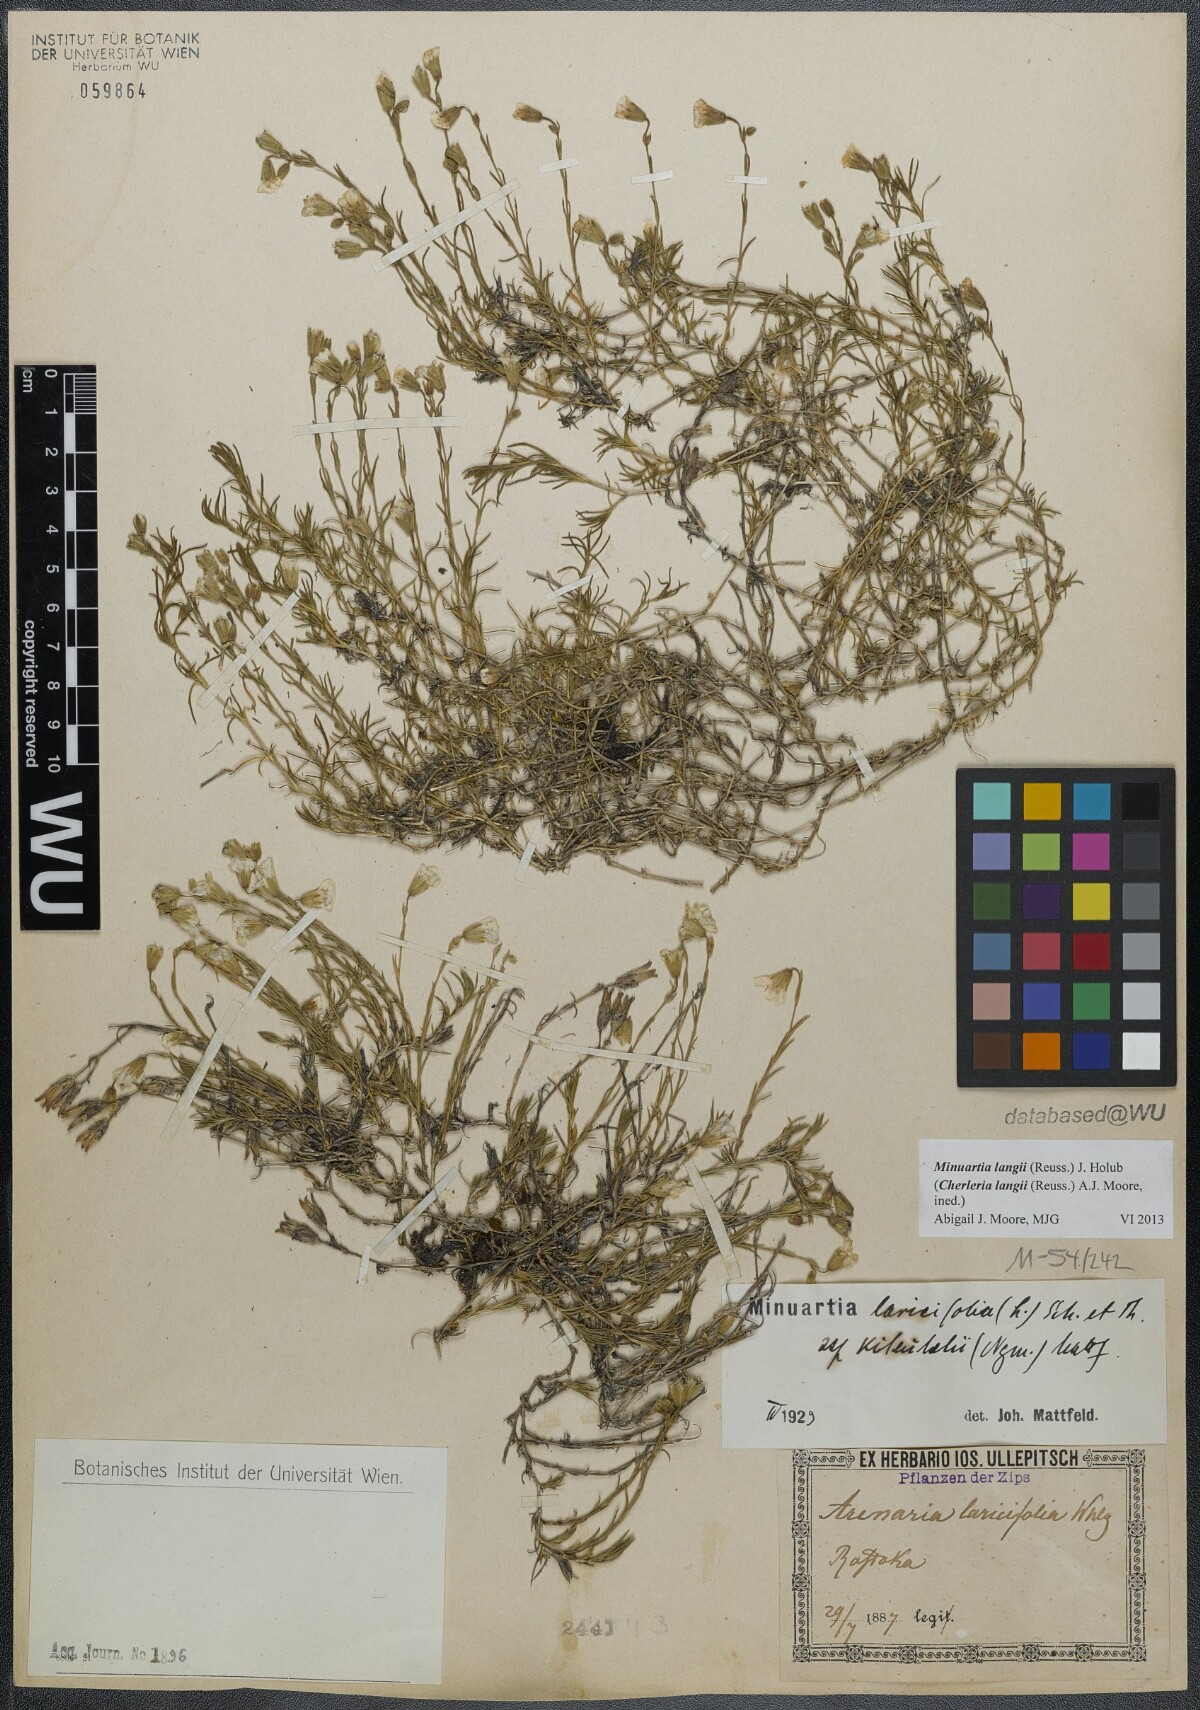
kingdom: Plantae
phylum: Tracheophyta
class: Magnoliopsida
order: Caryophyllales
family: Caryophyllaceae
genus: Cherleria
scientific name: Cherleria langii
